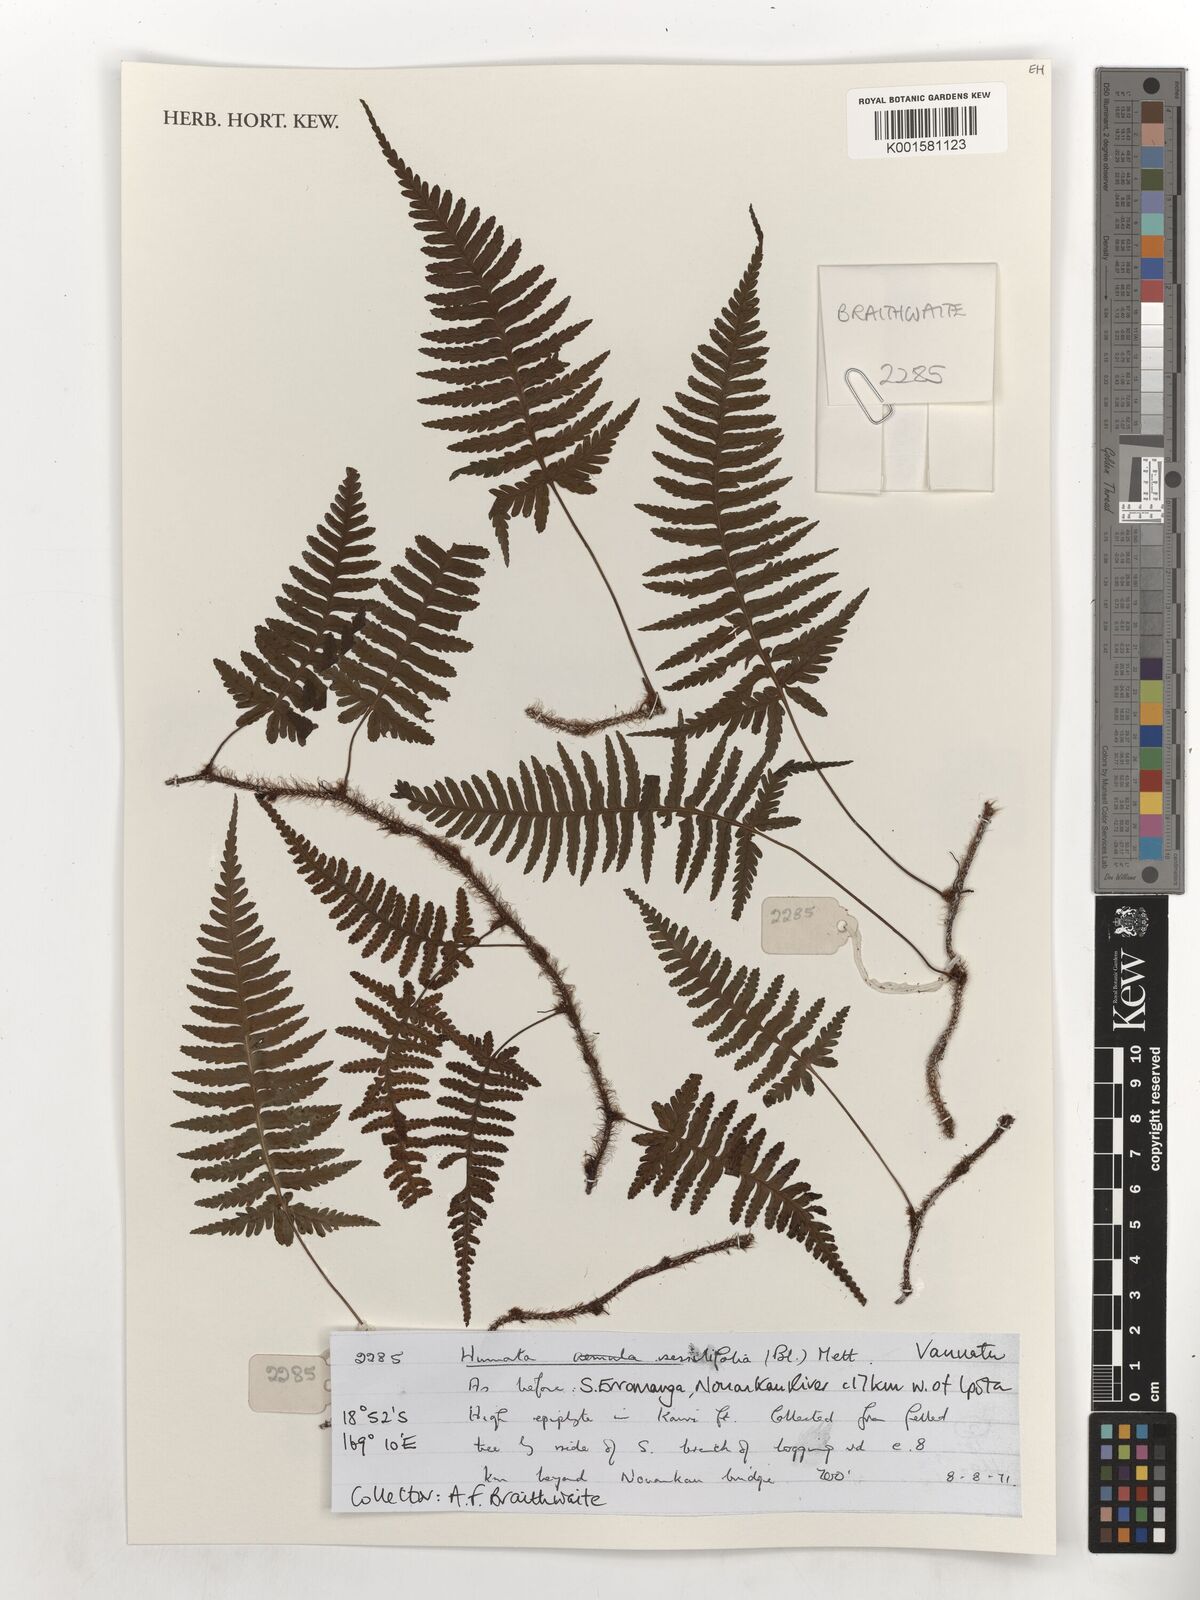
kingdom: Plantae
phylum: Tracheophyta
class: Polypodiopsida
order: Polypodiales
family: Davalliaceae
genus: Davallia
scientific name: Davallia sessilifolia
